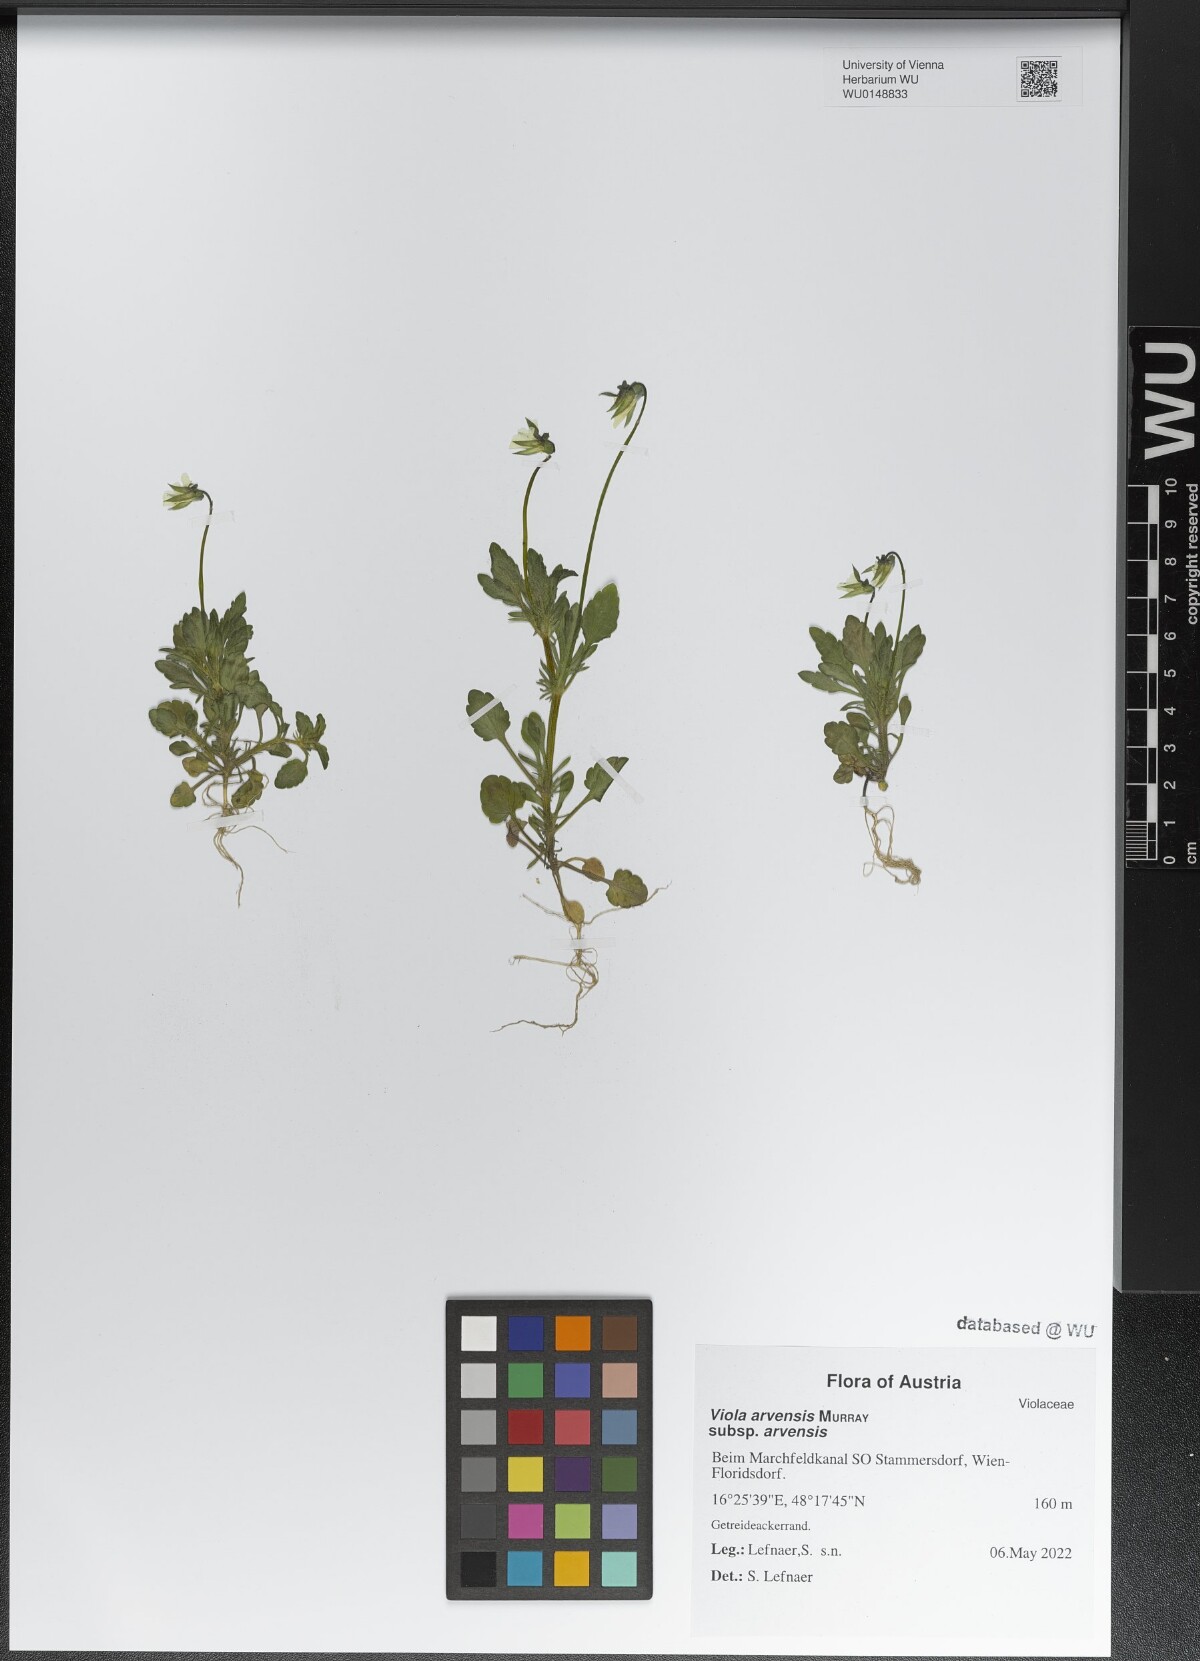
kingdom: Plantae
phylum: Tracheophyta
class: Magnoliopsida
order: Malpighiales
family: Violaceae
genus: Viola
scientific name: Viola arvensis
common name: Field pansy
